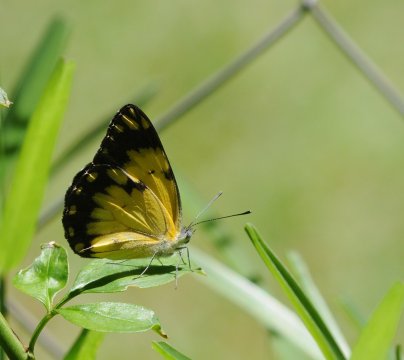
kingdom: Animalia
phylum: Arthropoda
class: Insecta
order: Lepidoptera
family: Pieridae
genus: Belenois
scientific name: Belenois creona
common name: African Caper
